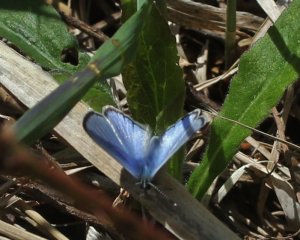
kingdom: Animalia
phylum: Arthropoda
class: Insecta
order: Lepidoptera
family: Lycaenidae
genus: Glaucopsyche
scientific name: Glaucopsyche lygdamus
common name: Silvery Blue
